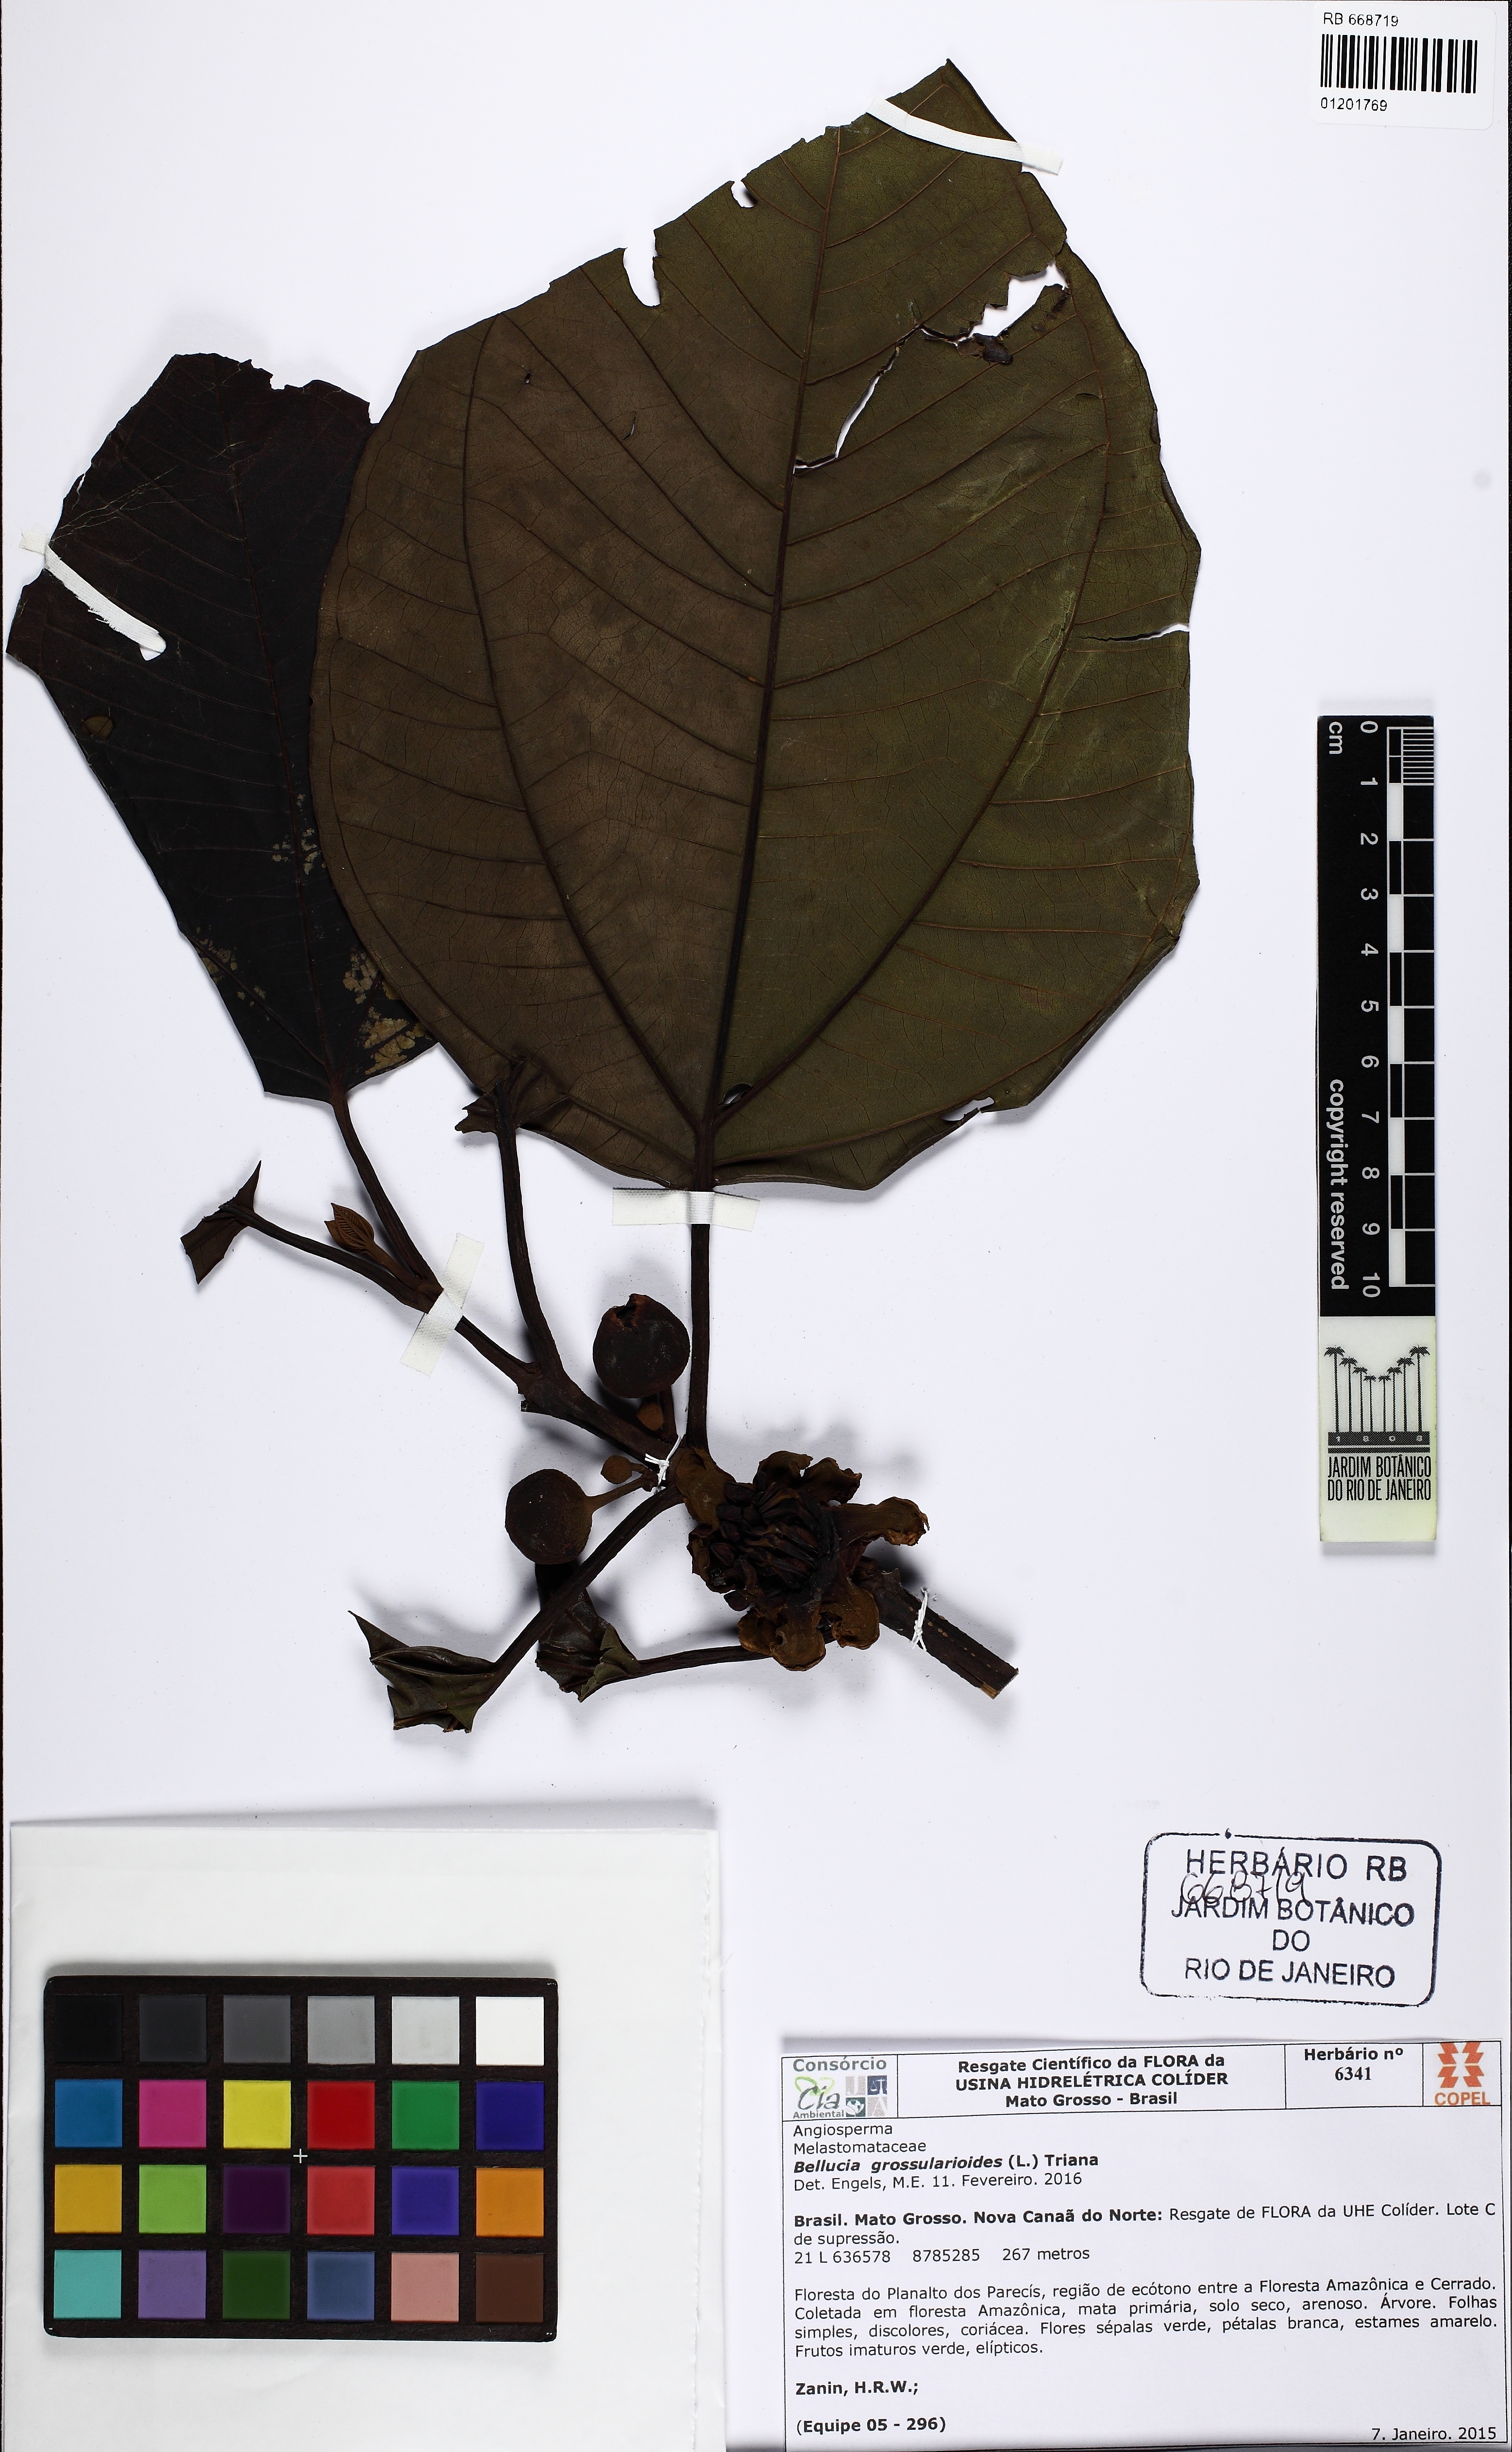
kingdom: Plantae
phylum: Tracheophyta
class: Magnoliopsida
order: Myrtales
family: Melastomataceae
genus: Bellucia
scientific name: Bellucia grossularioides
